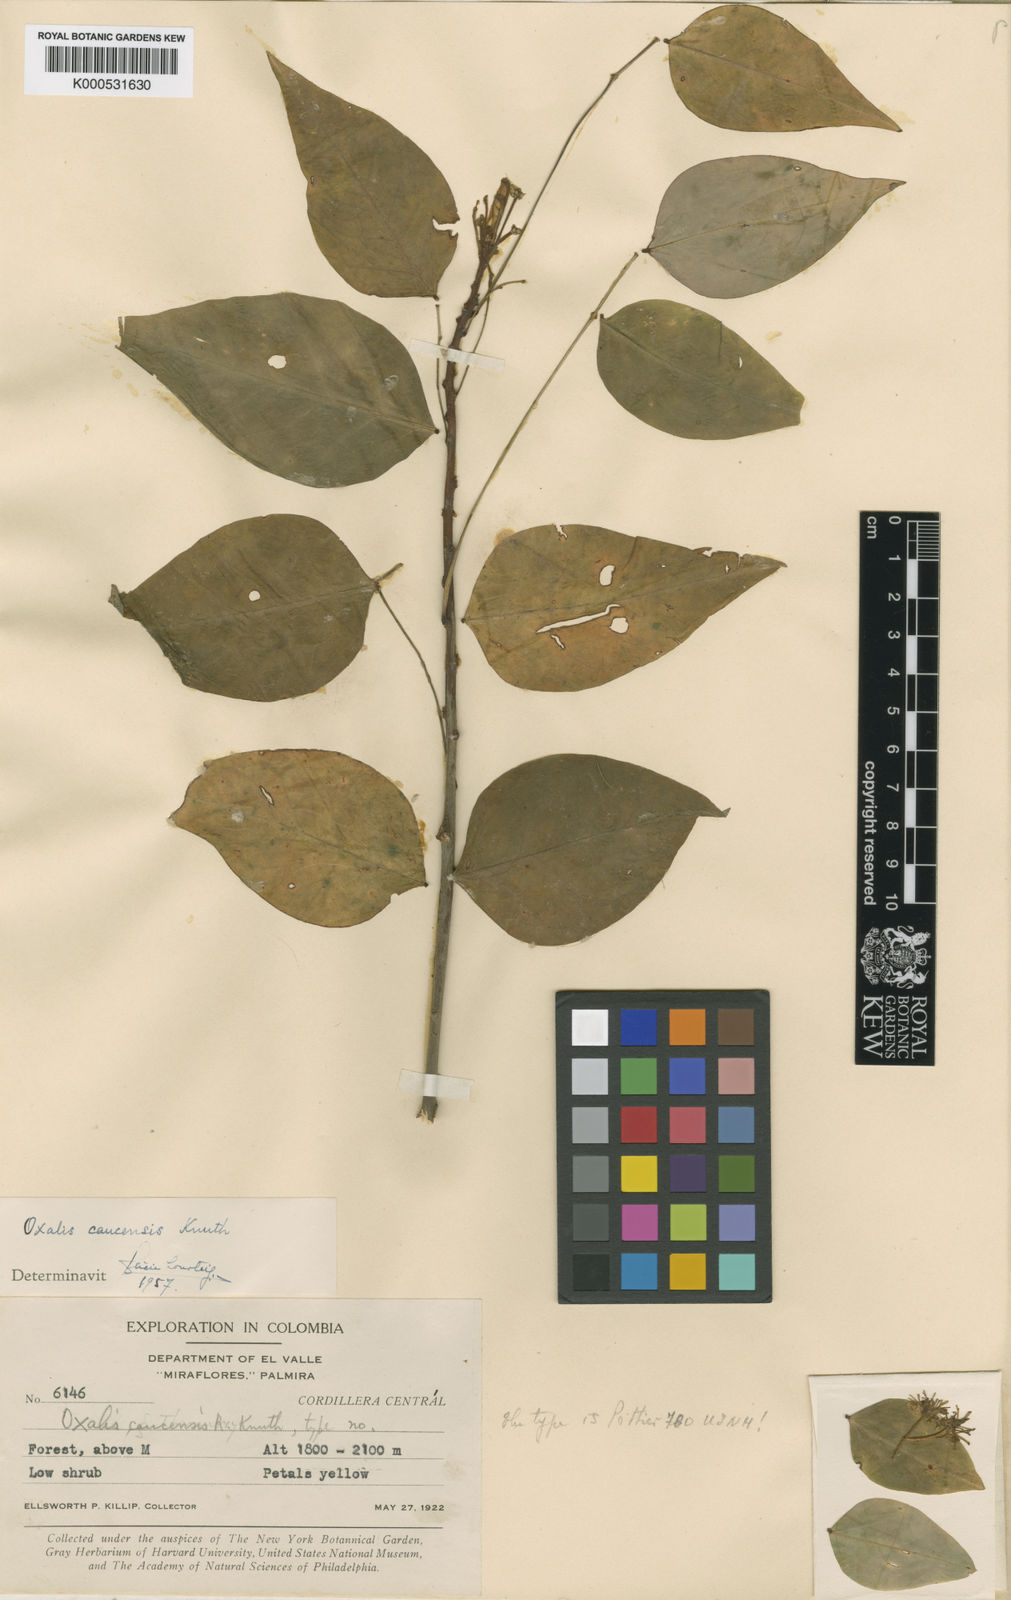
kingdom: Plantae
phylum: Tracheophyta
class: Magnoliopsida
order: Oxalidales
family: Oxalidaceae
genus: Oxalis
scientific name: Oxalis caucensis
